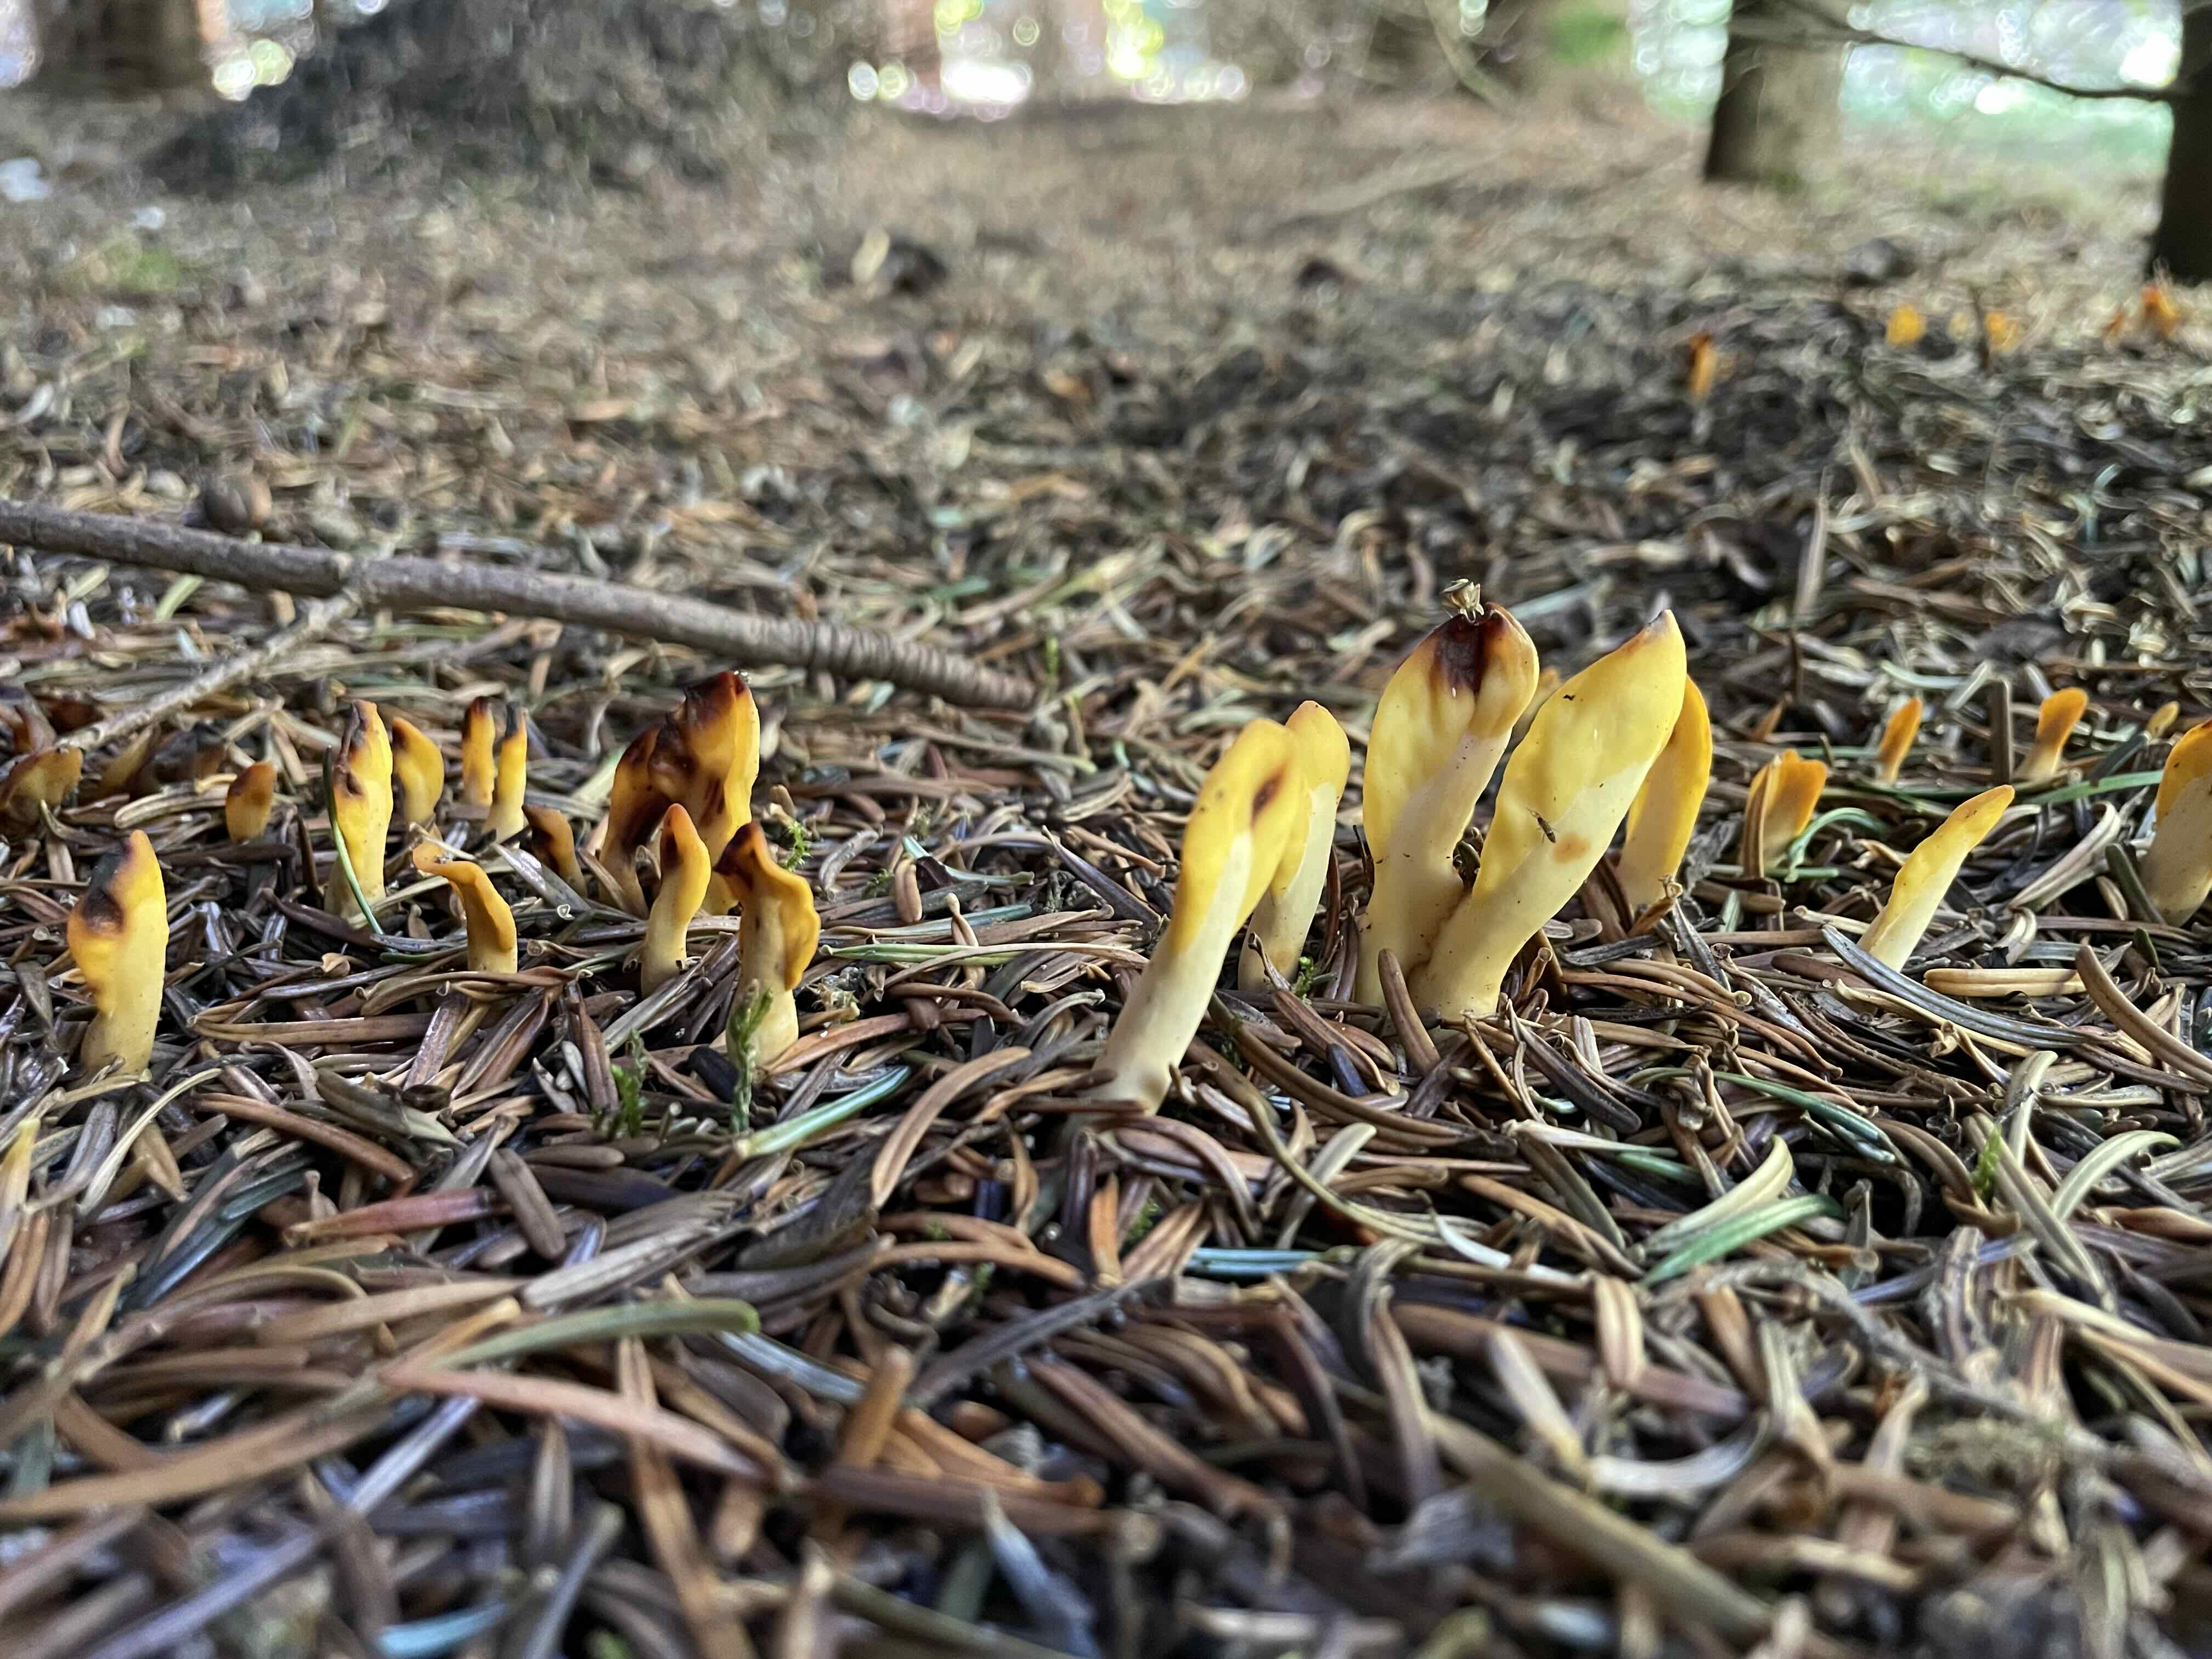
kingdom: Fungi
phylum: Ascomycota
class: Leotiomycetes
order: Rhytismatales
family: Cudoniaceae
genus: Spathularia
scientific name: Spathularia flavida
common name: gul spatelsvamp
